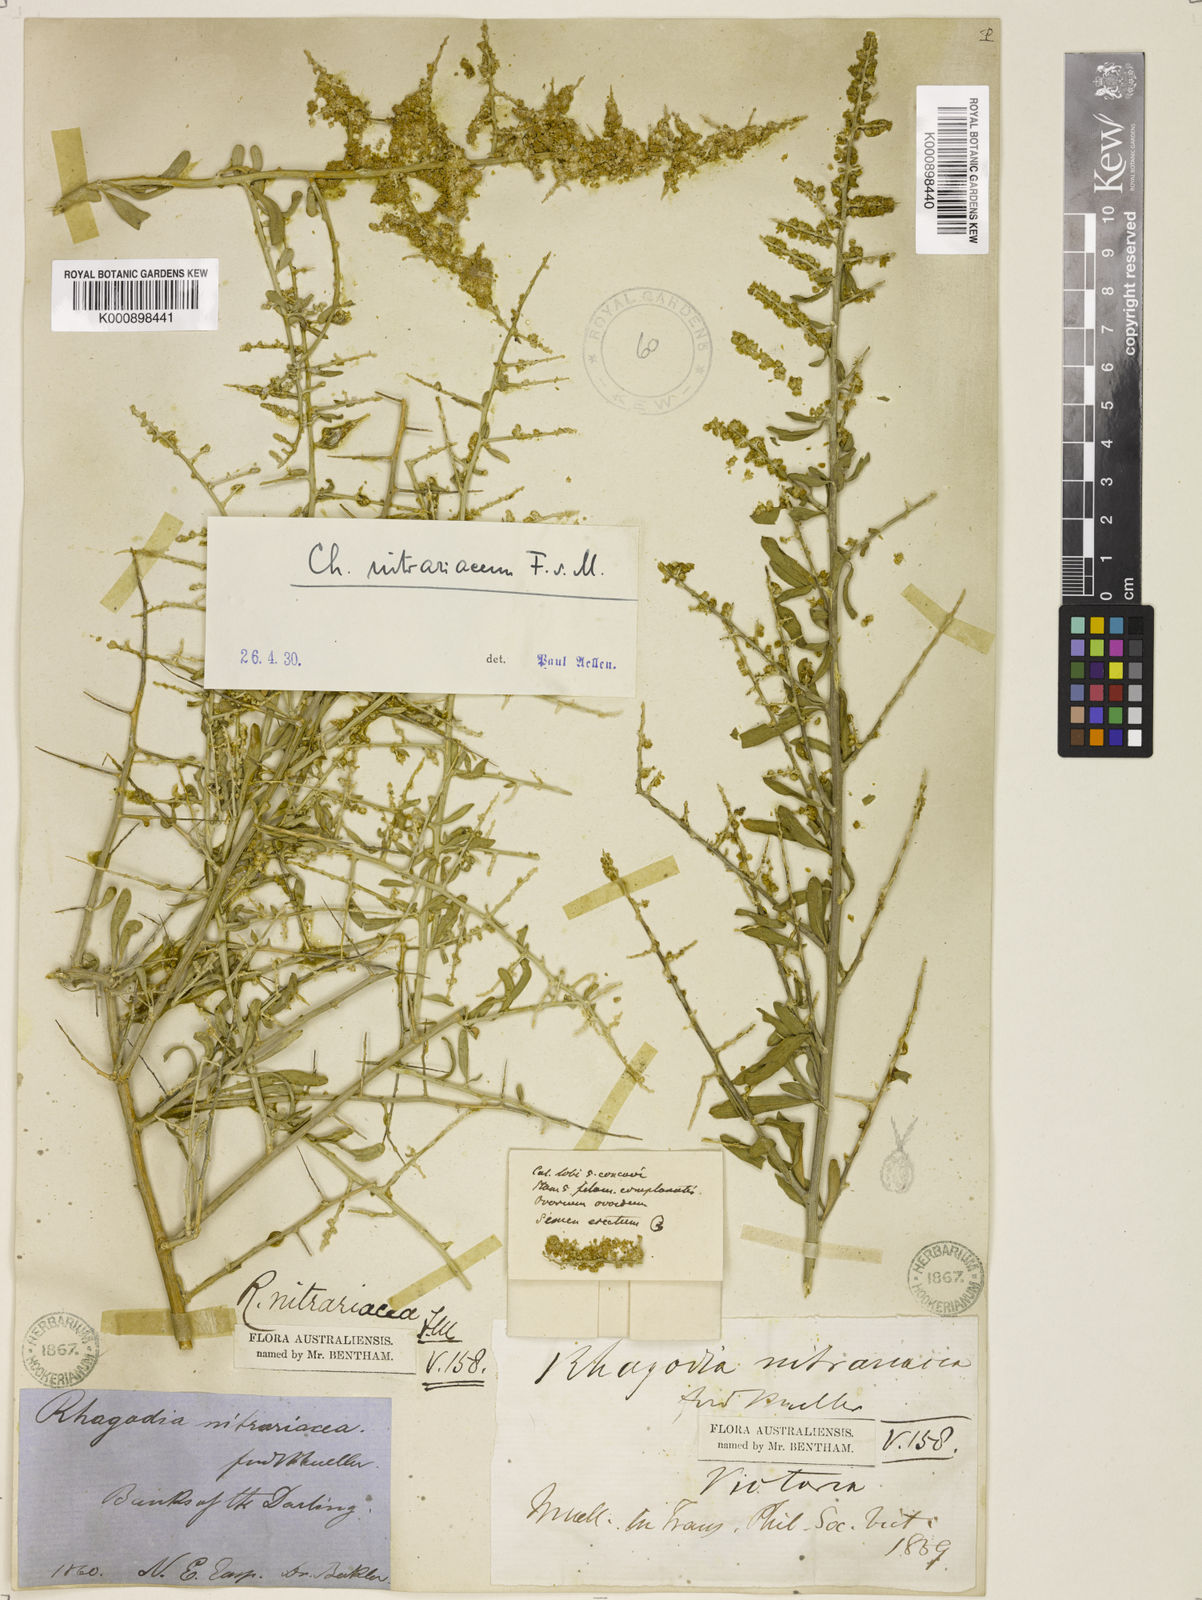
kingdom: Plantae
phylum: Tracheophyta
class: Magnoliopsida
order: Caryophyllales
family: Amaranthaceae
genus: Chenopodium
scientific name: Chenopodium nitrariaceum
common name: Nitre goosefoot
